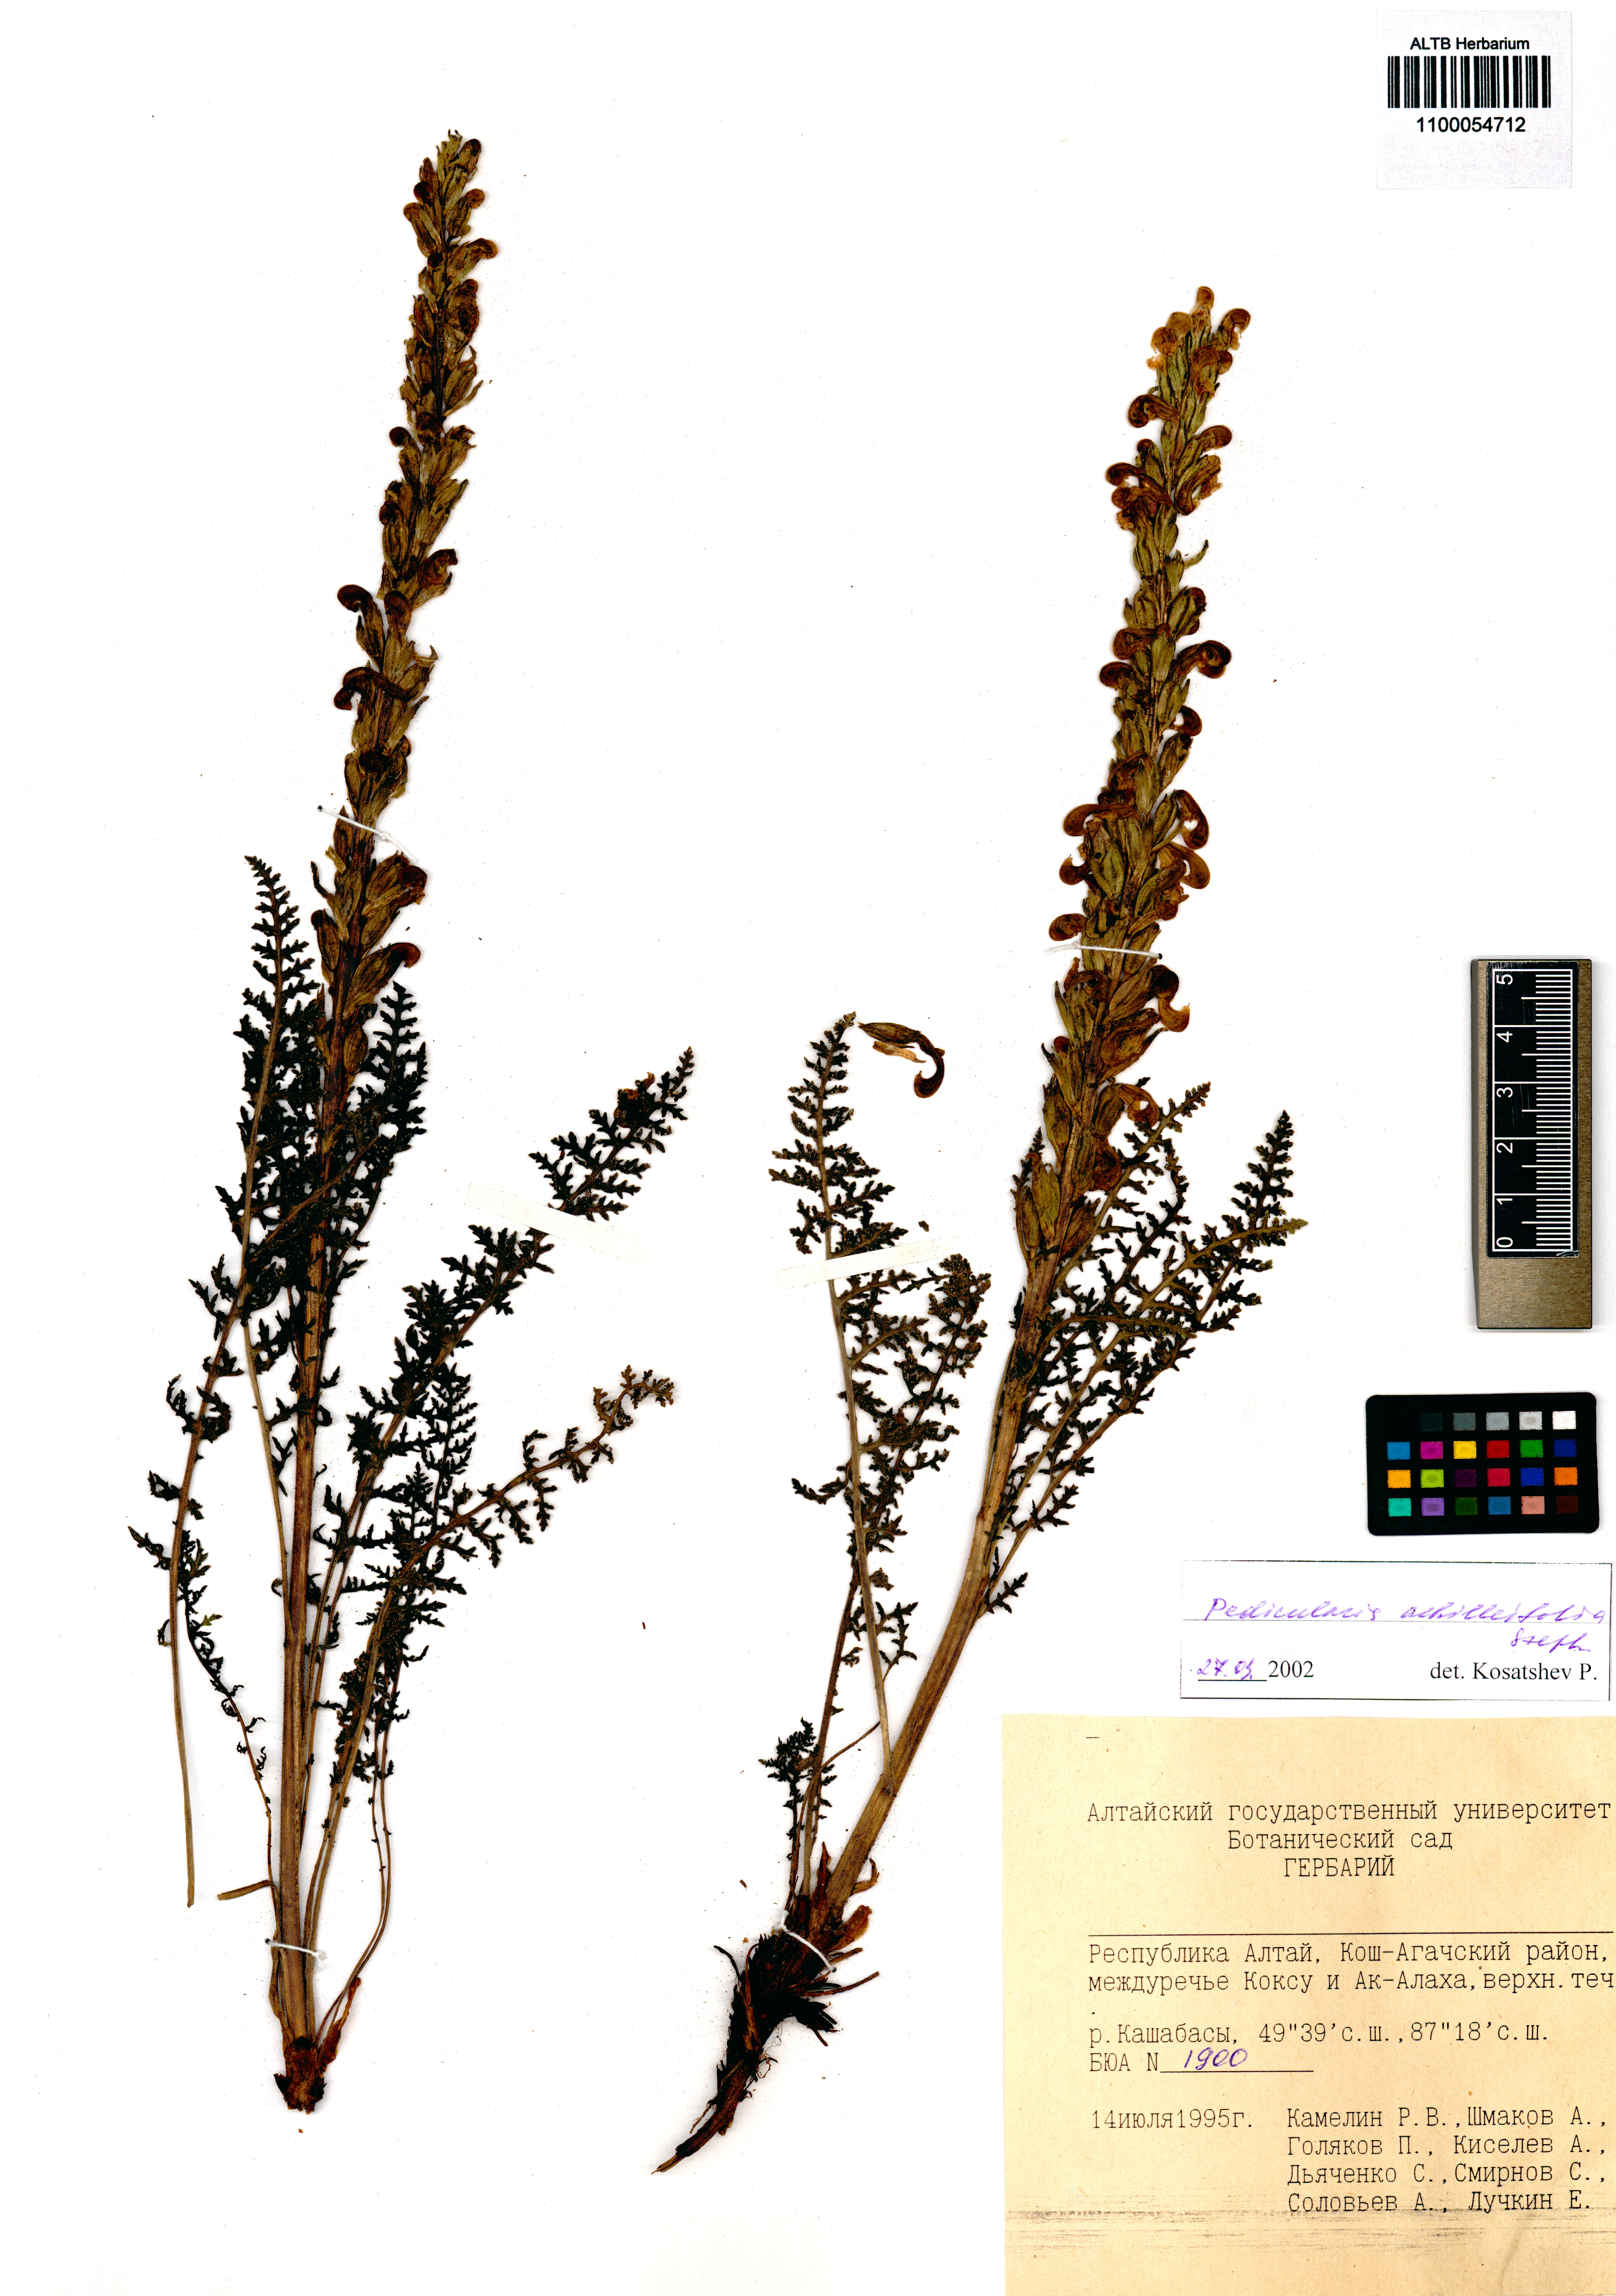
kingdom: Plantae
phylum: Tracheophyta
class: Magnoliopsida
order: Lamiales
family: Orobanchaceae
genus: Pedicularis
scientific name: Pedicularis achilleifolia
